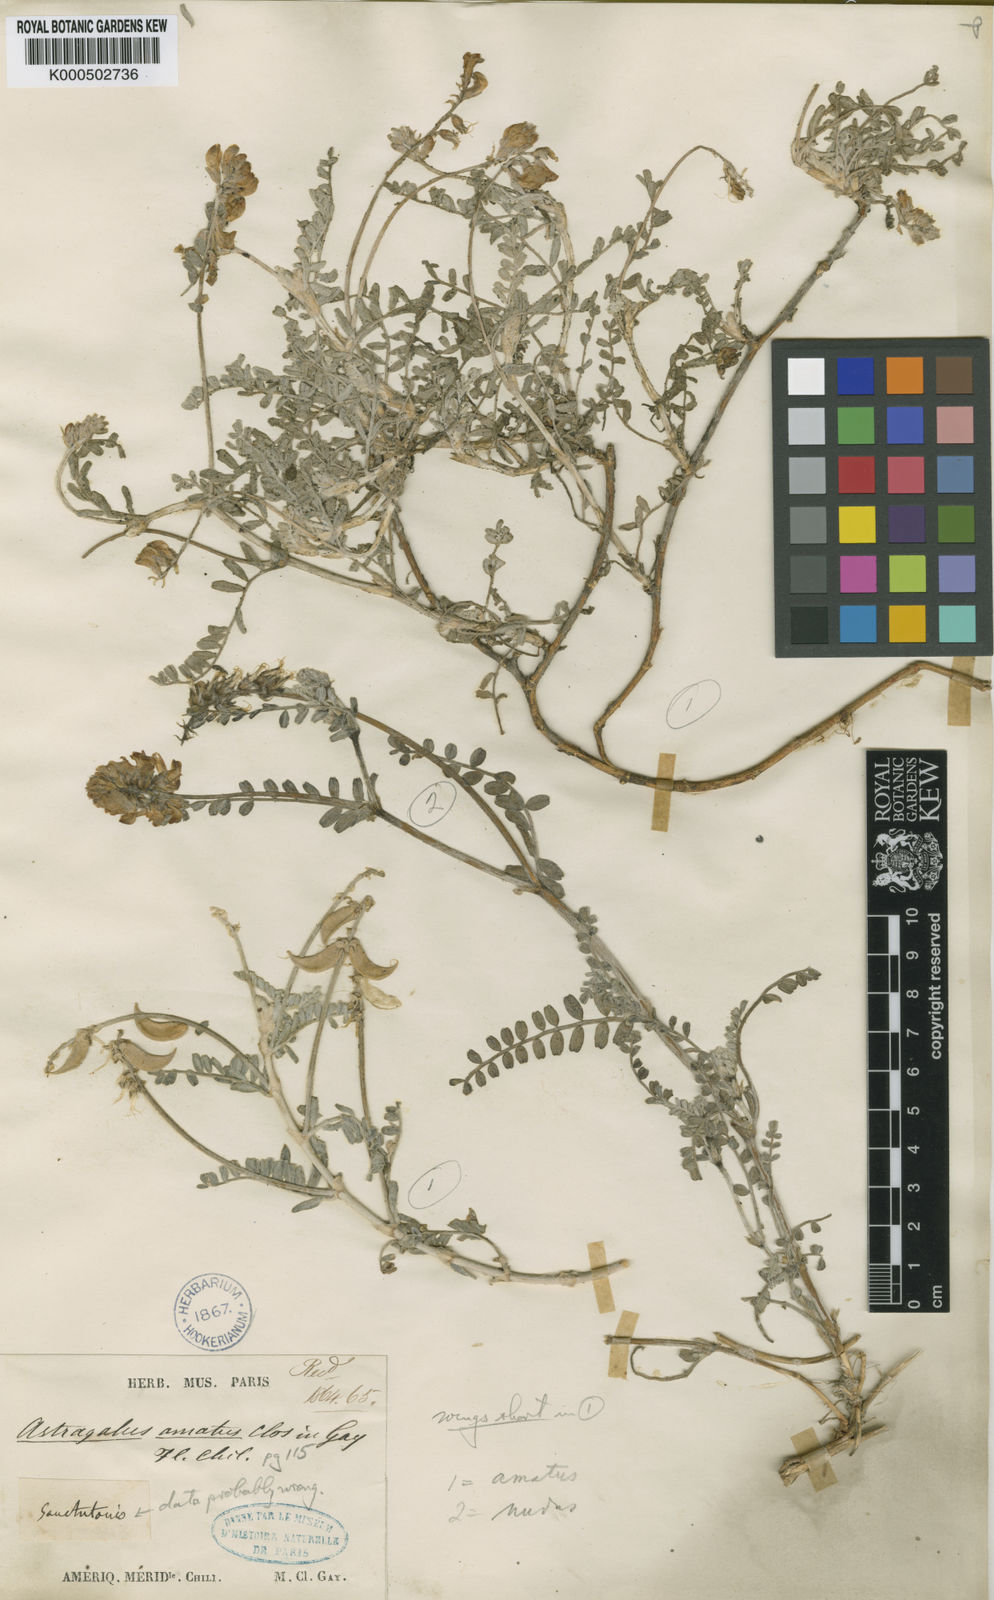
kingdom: Plantae
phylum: Tracheophyta
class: Magnoliopsida
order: Fabales
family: Fabaceae
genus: Astragalus
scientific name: Astragalus amatus
